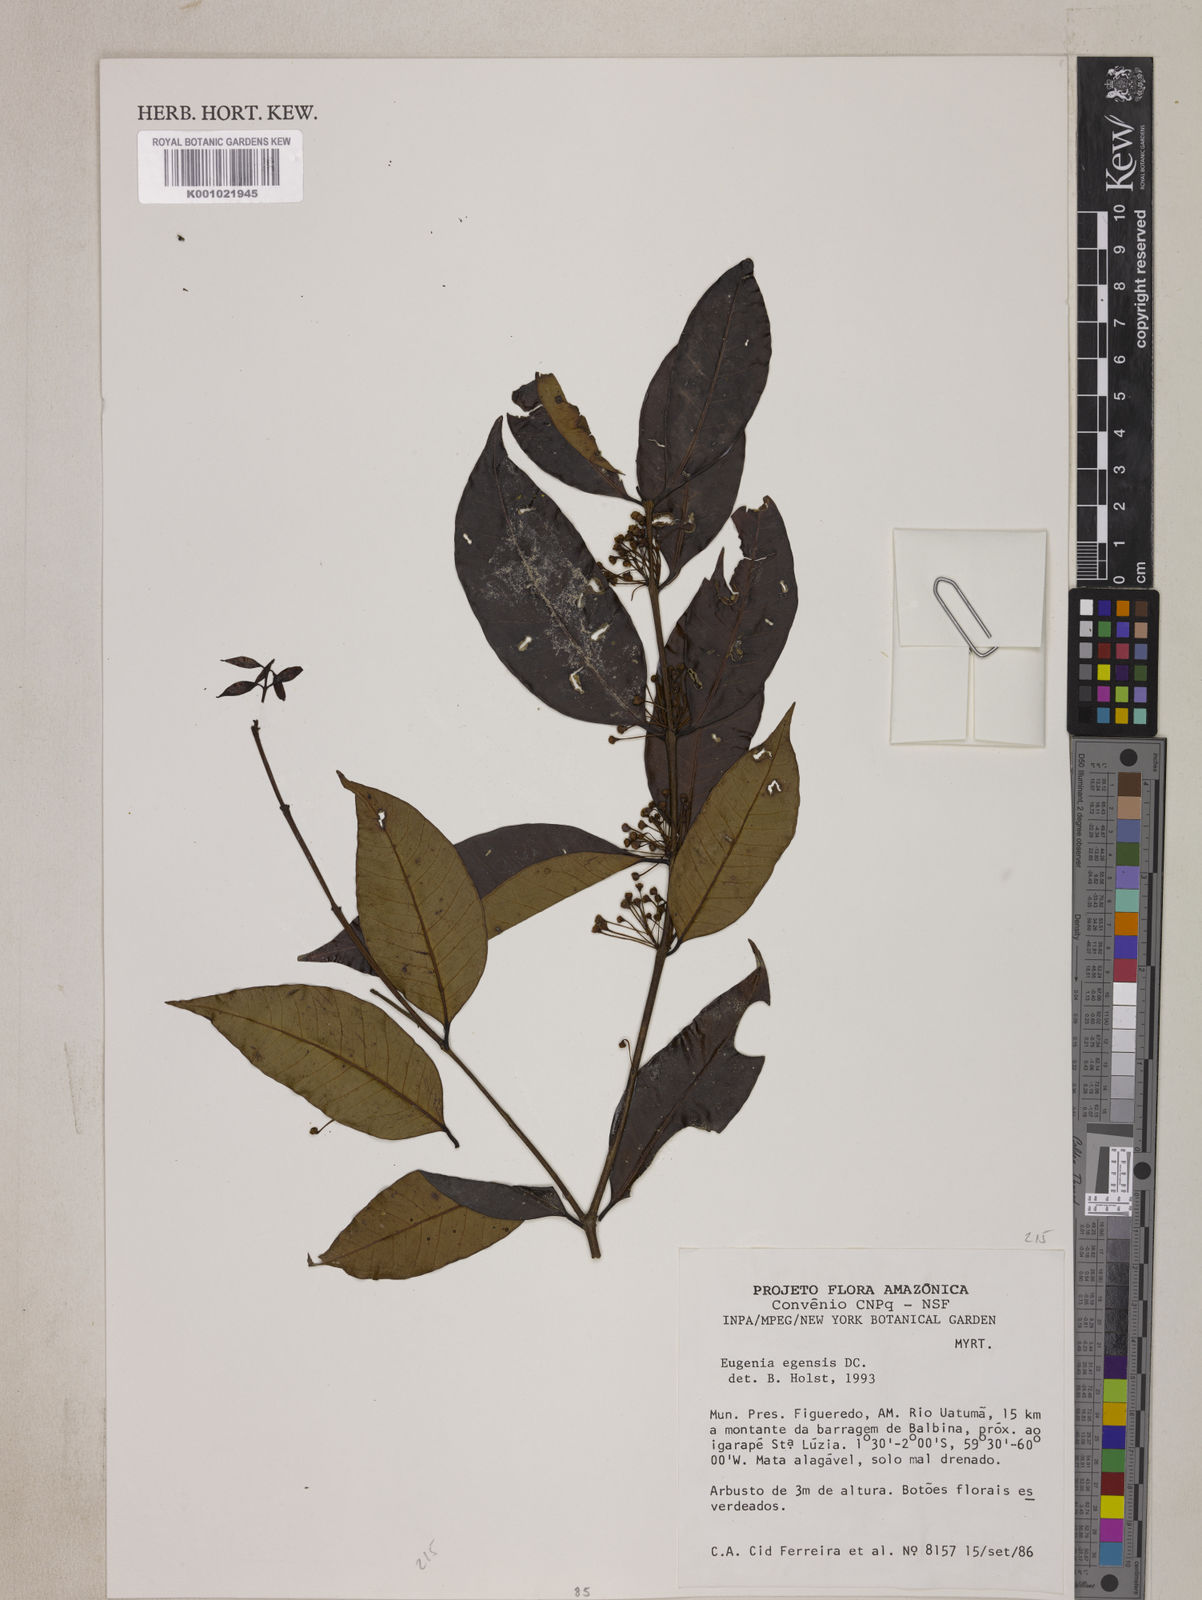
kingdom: Plantae
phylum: Tracheophyta
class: Magnoliopsida
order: Myrtales
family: Myrtaceae
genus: Eugenia
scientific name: Eugenia egensis
